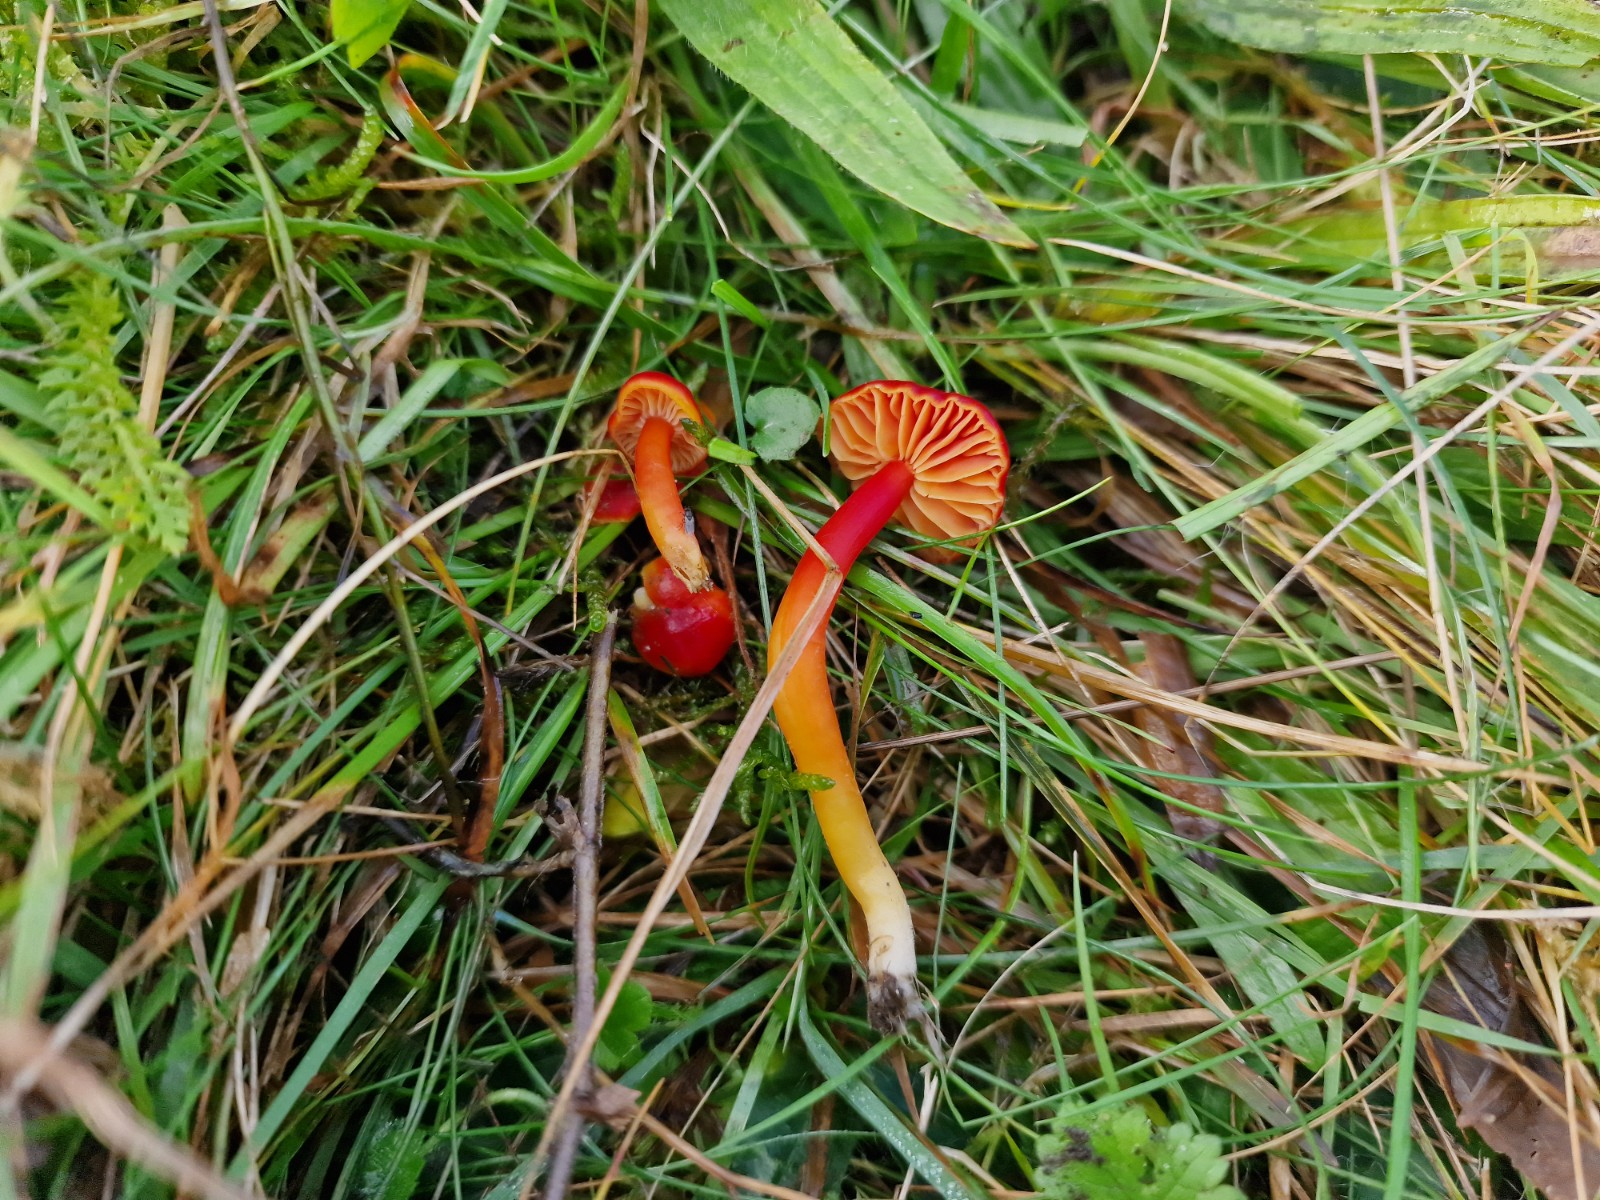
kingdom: Fungi
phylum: Basidiomycota
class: Agaricomycetes
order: Agaricales
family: Hygrophoraceae
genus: Hygrocybe
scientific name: Hygrocybe coccinea
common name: cinnober-vokshat
